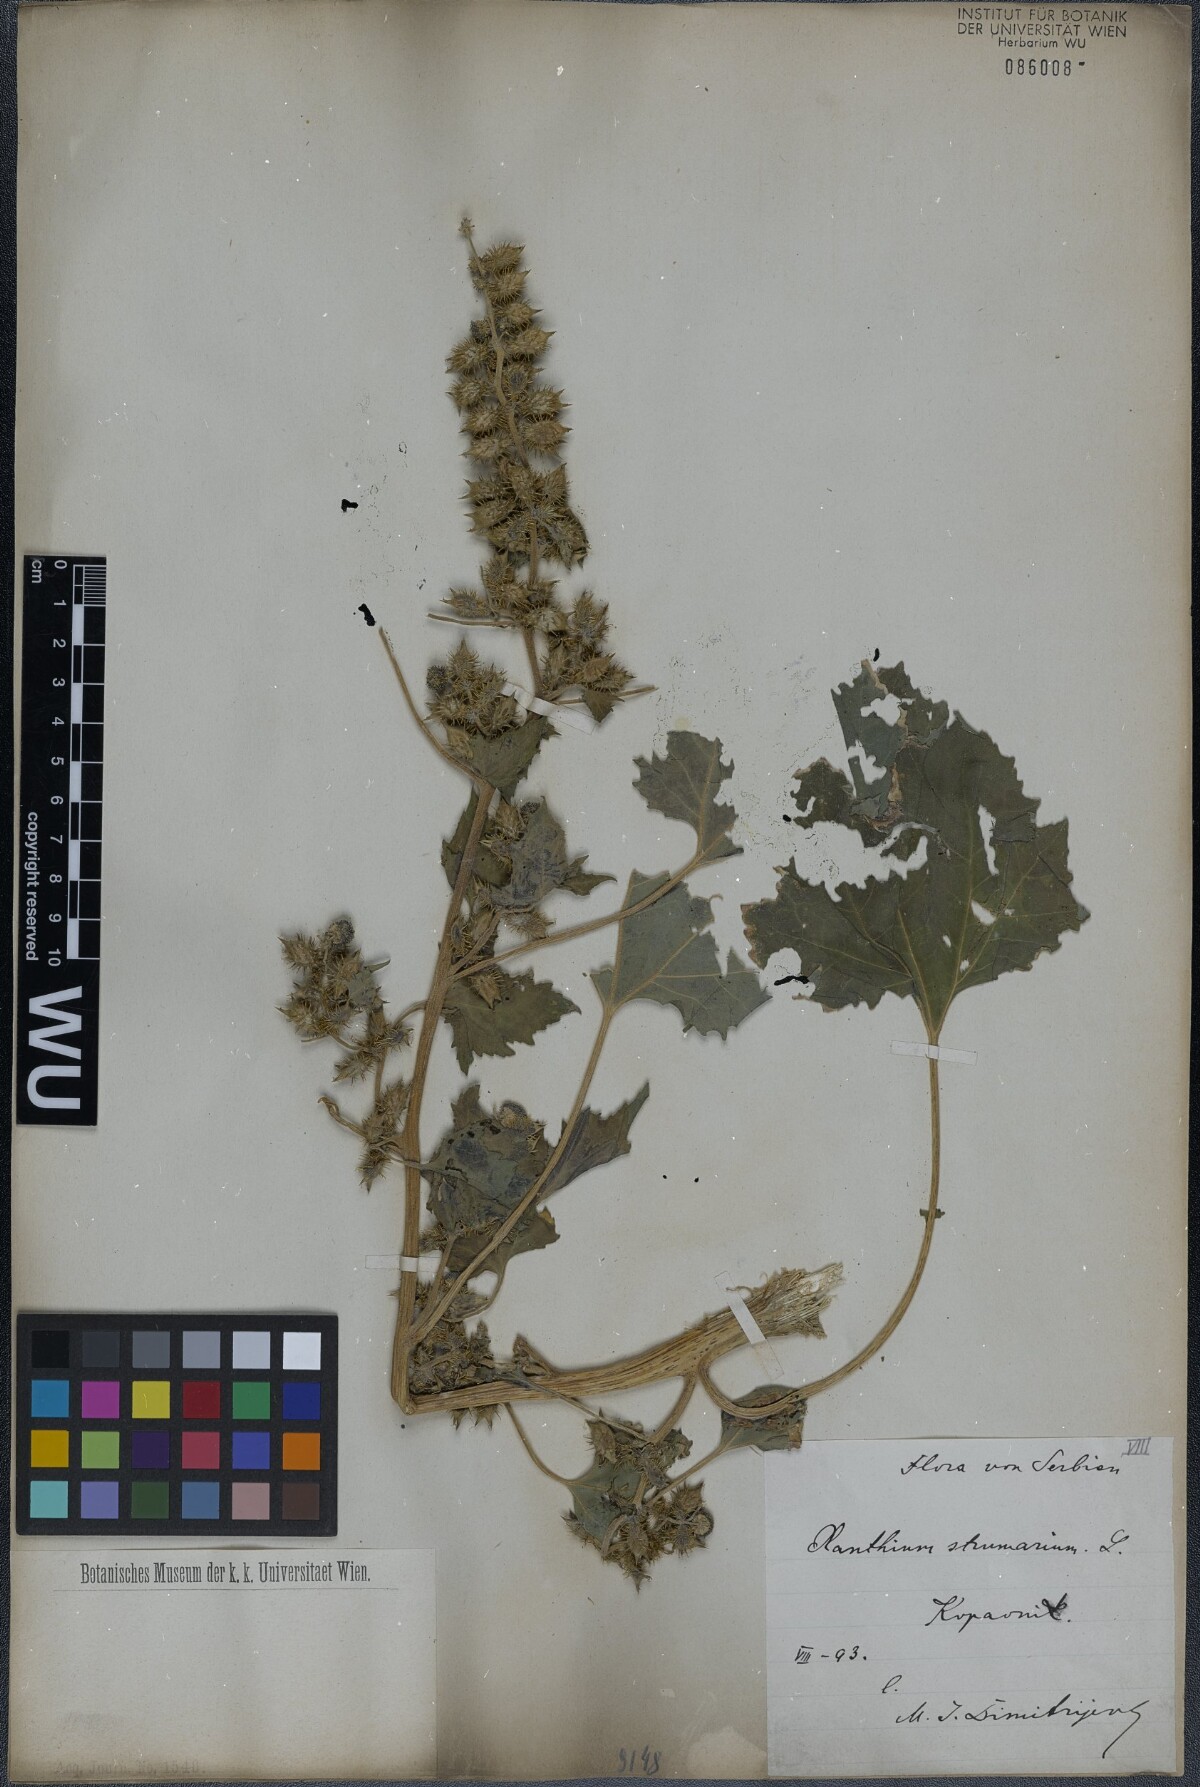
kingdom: Plantae
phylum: Tracheophyta
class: Magnoliopsida
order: Asterales
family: Asteraceae
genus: Xanthium
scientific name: Xanthium strumarium
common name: Rough cocklebur
